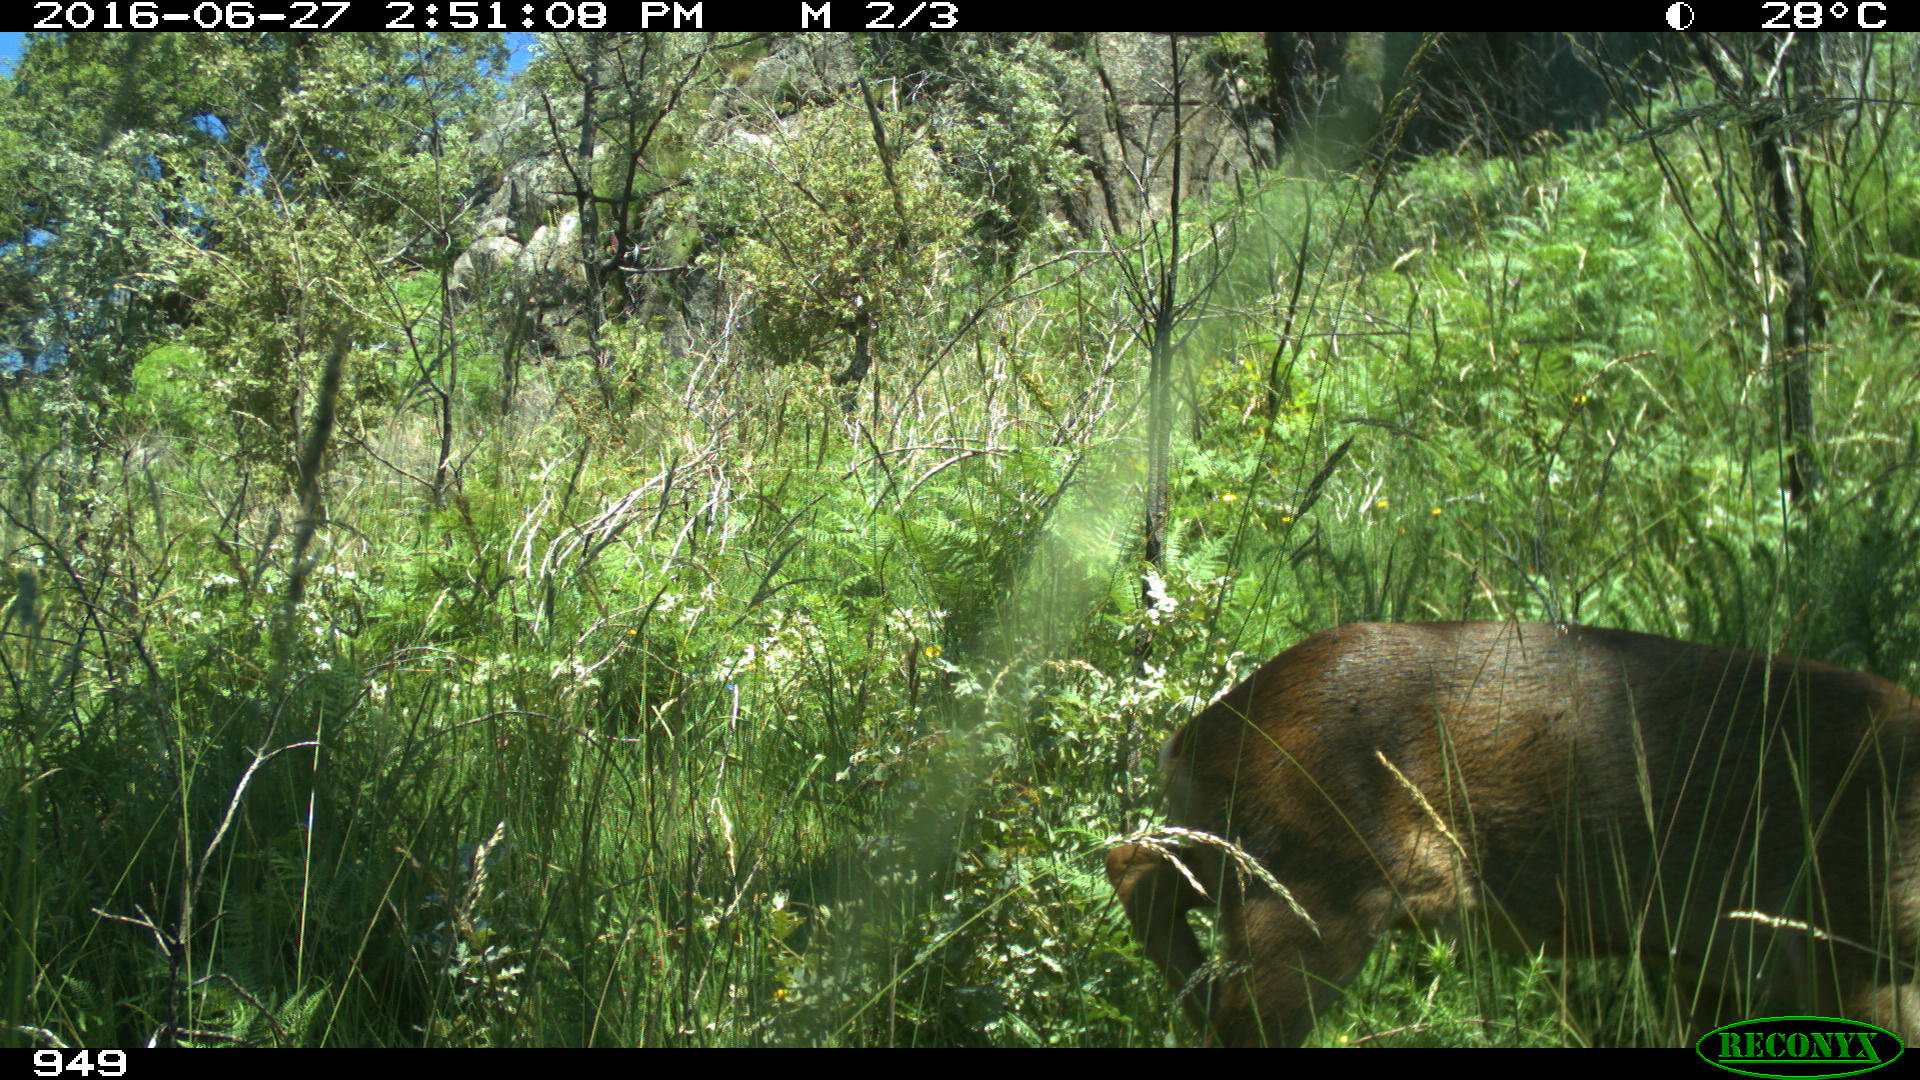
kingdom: Animalia
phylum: Chordata
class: Mammalia
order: Artiodactyla
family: Cervidae
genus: Capreolus
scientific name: Capreolus capreolus
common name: Western roe deer
